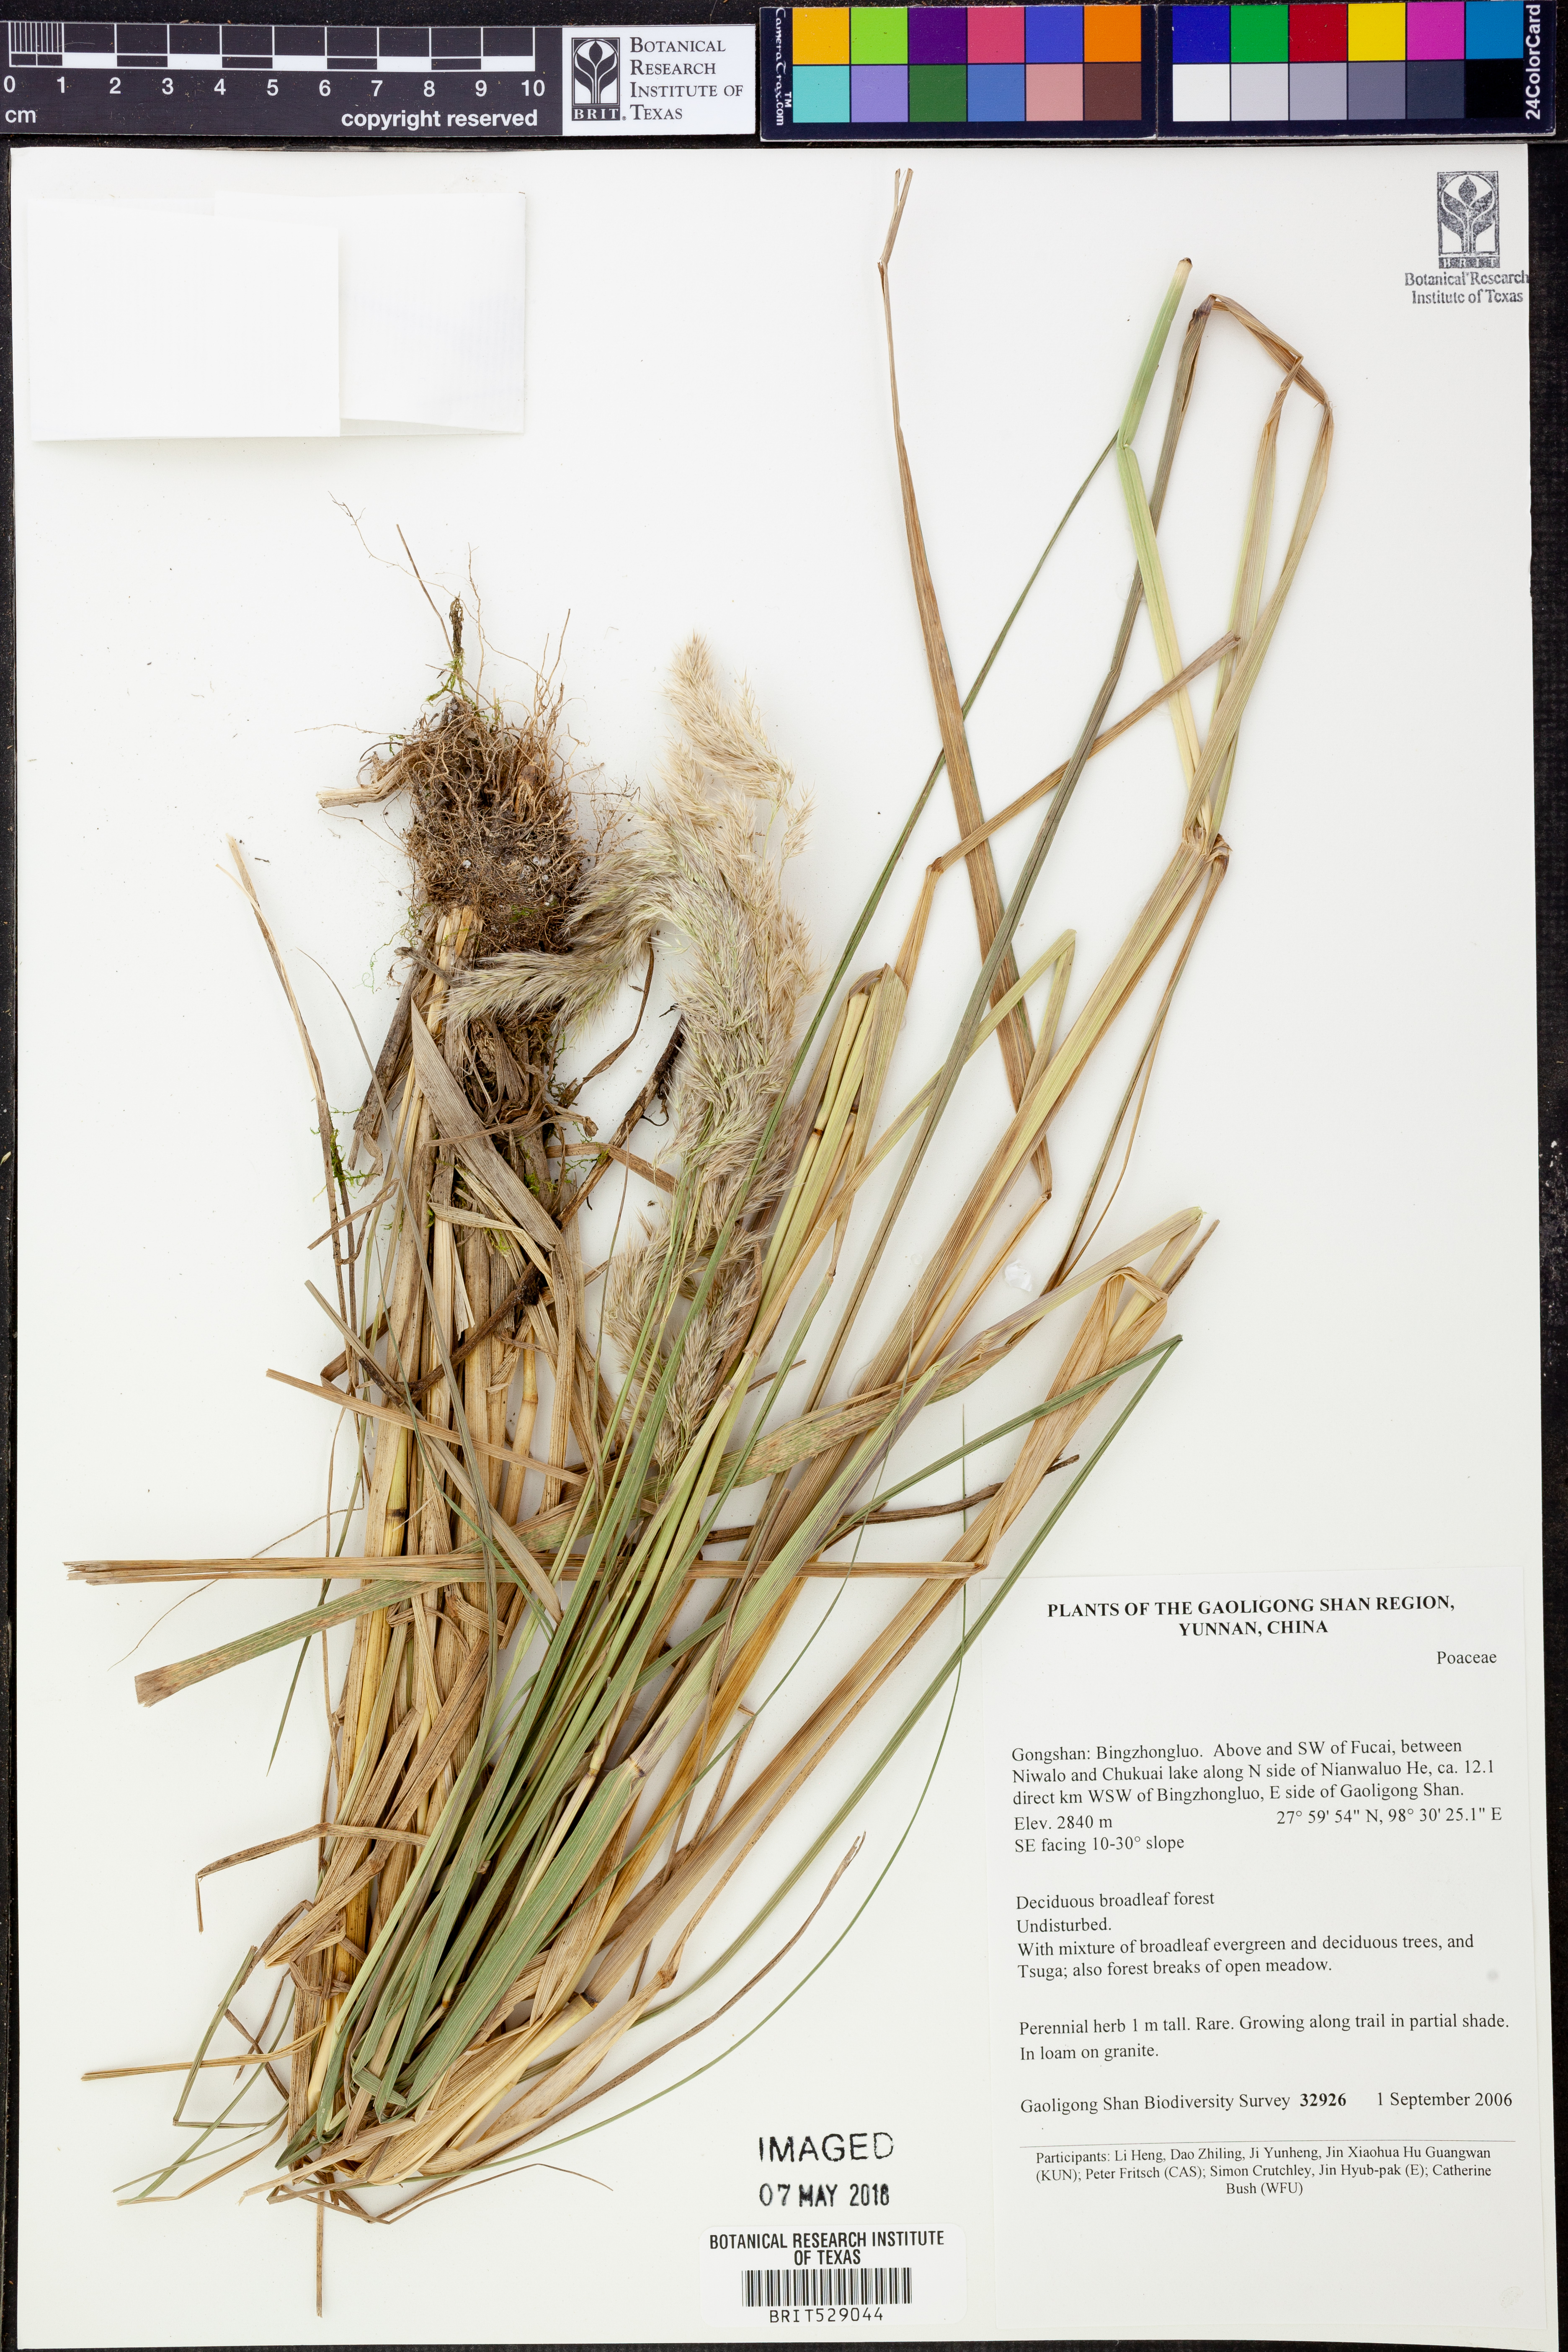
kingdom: Plantae
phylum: Tracheophyta
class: Liliopsida
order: Poales
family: Poaceae
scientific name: Poaceae
